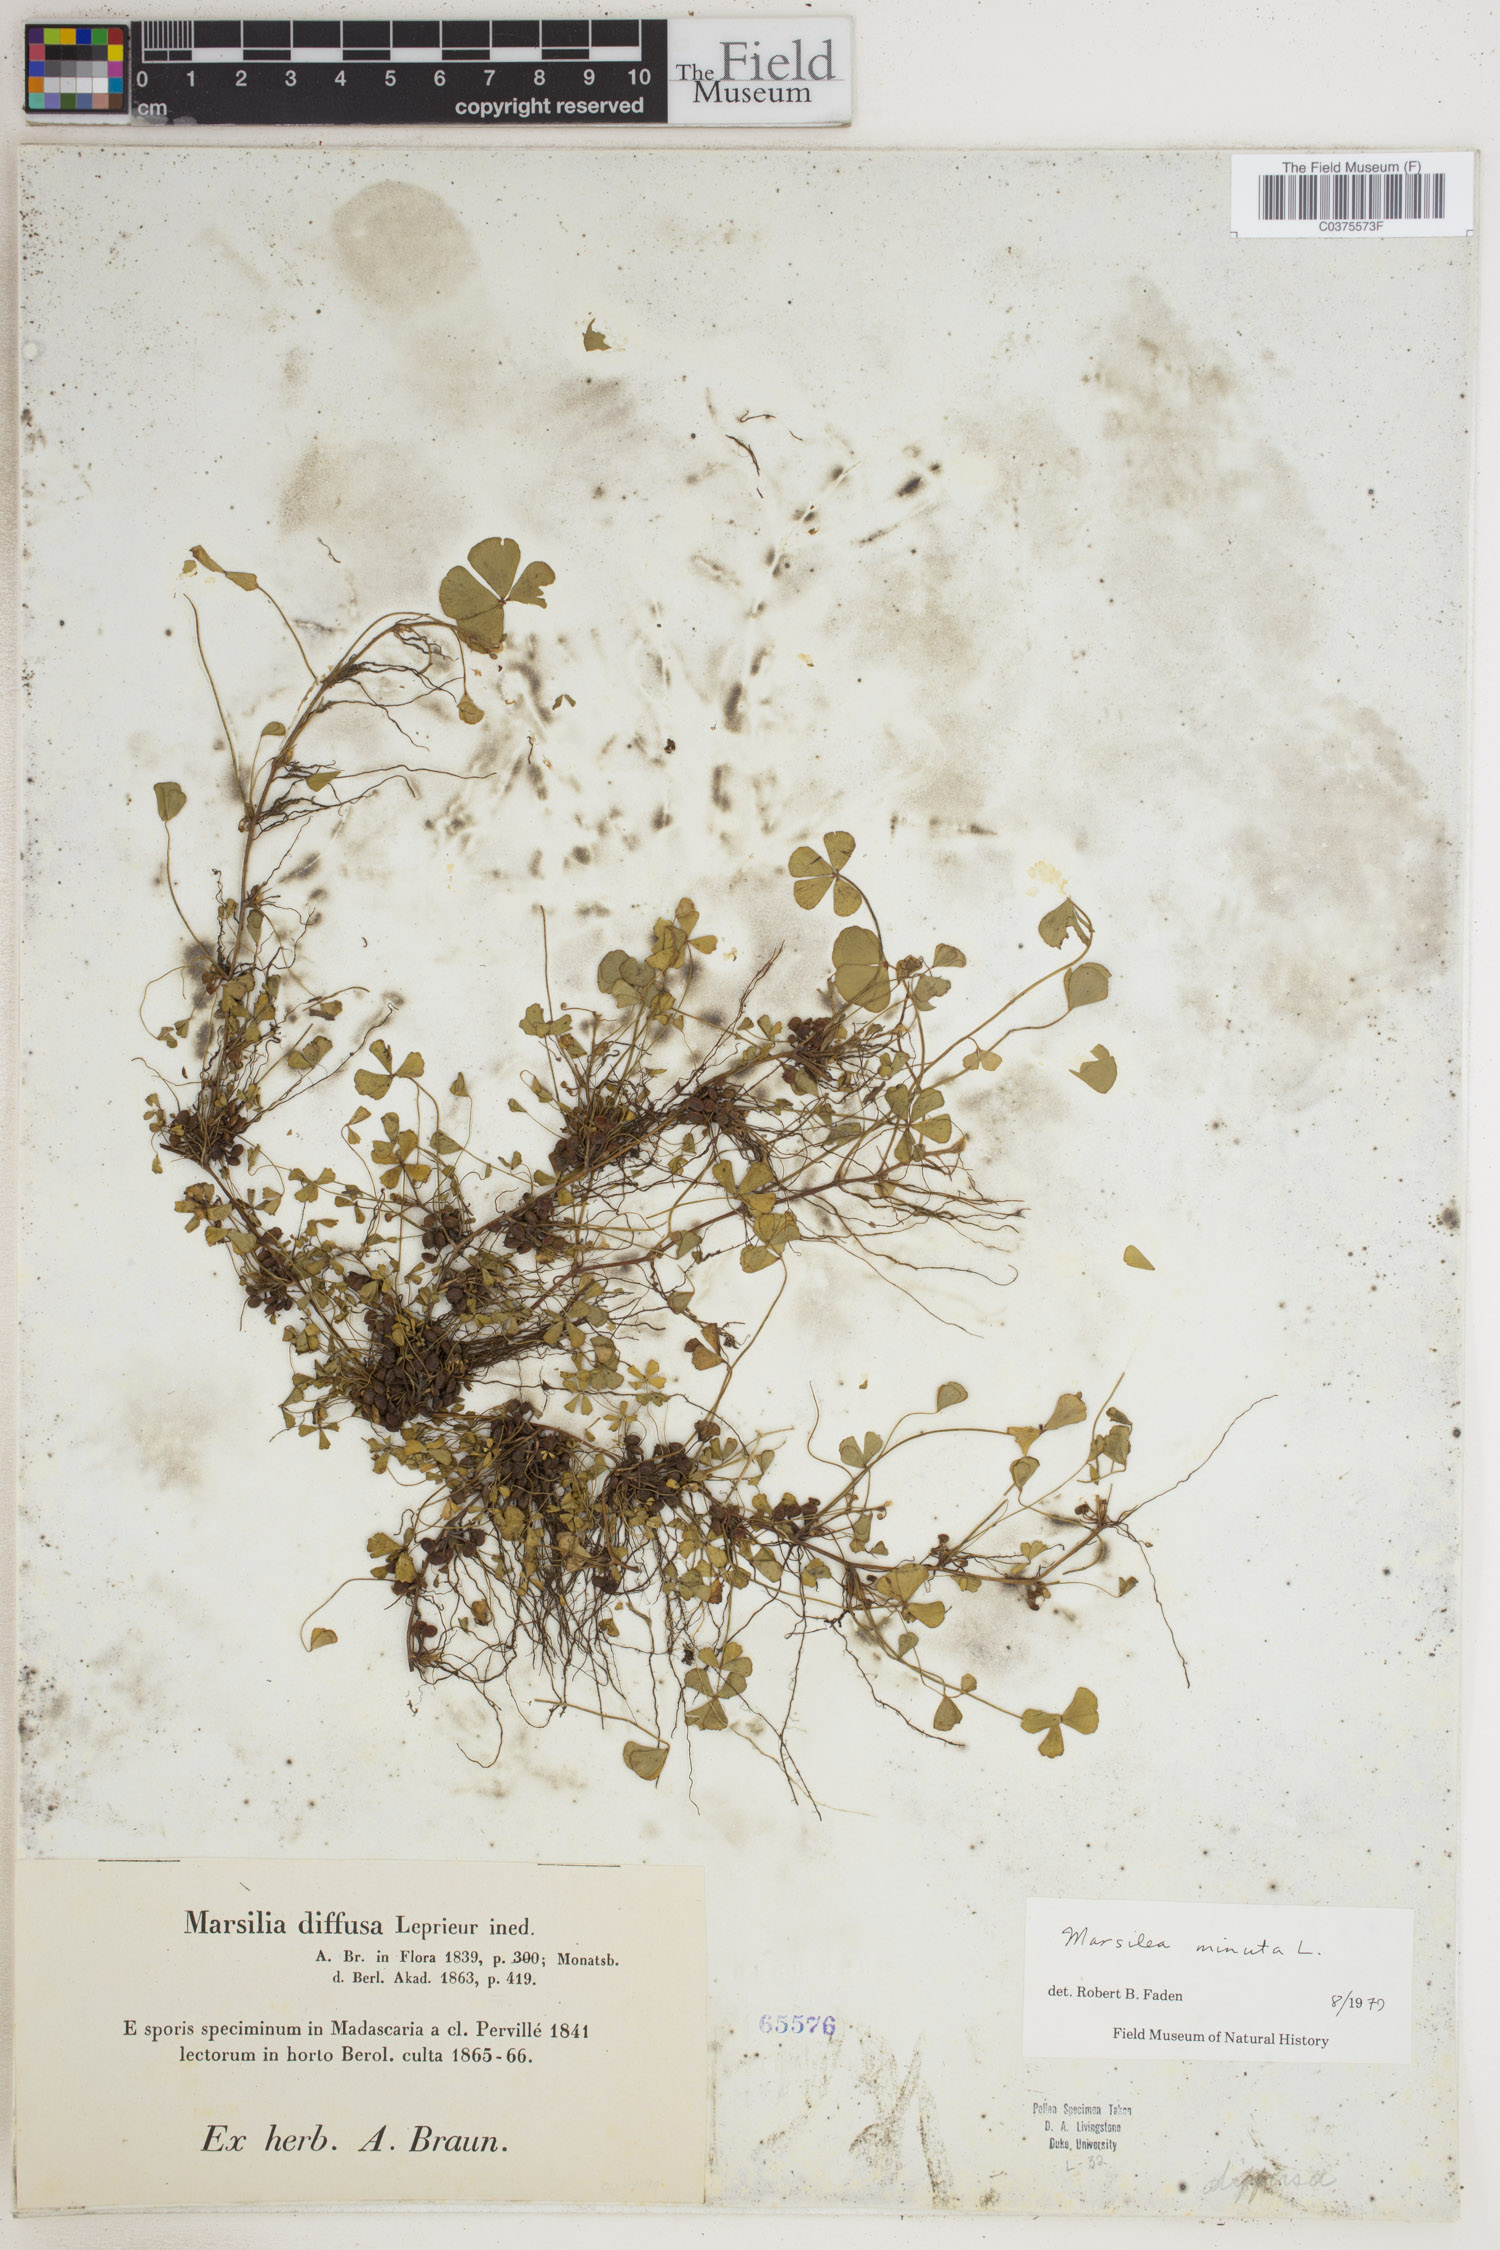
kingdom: Plantae
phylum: Tracheophyta
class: Polypodiopsida
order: Salviniales
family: Marsileaceae
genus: Marsilea
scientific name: Marsilea minuta
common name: Dwarf waterclover
